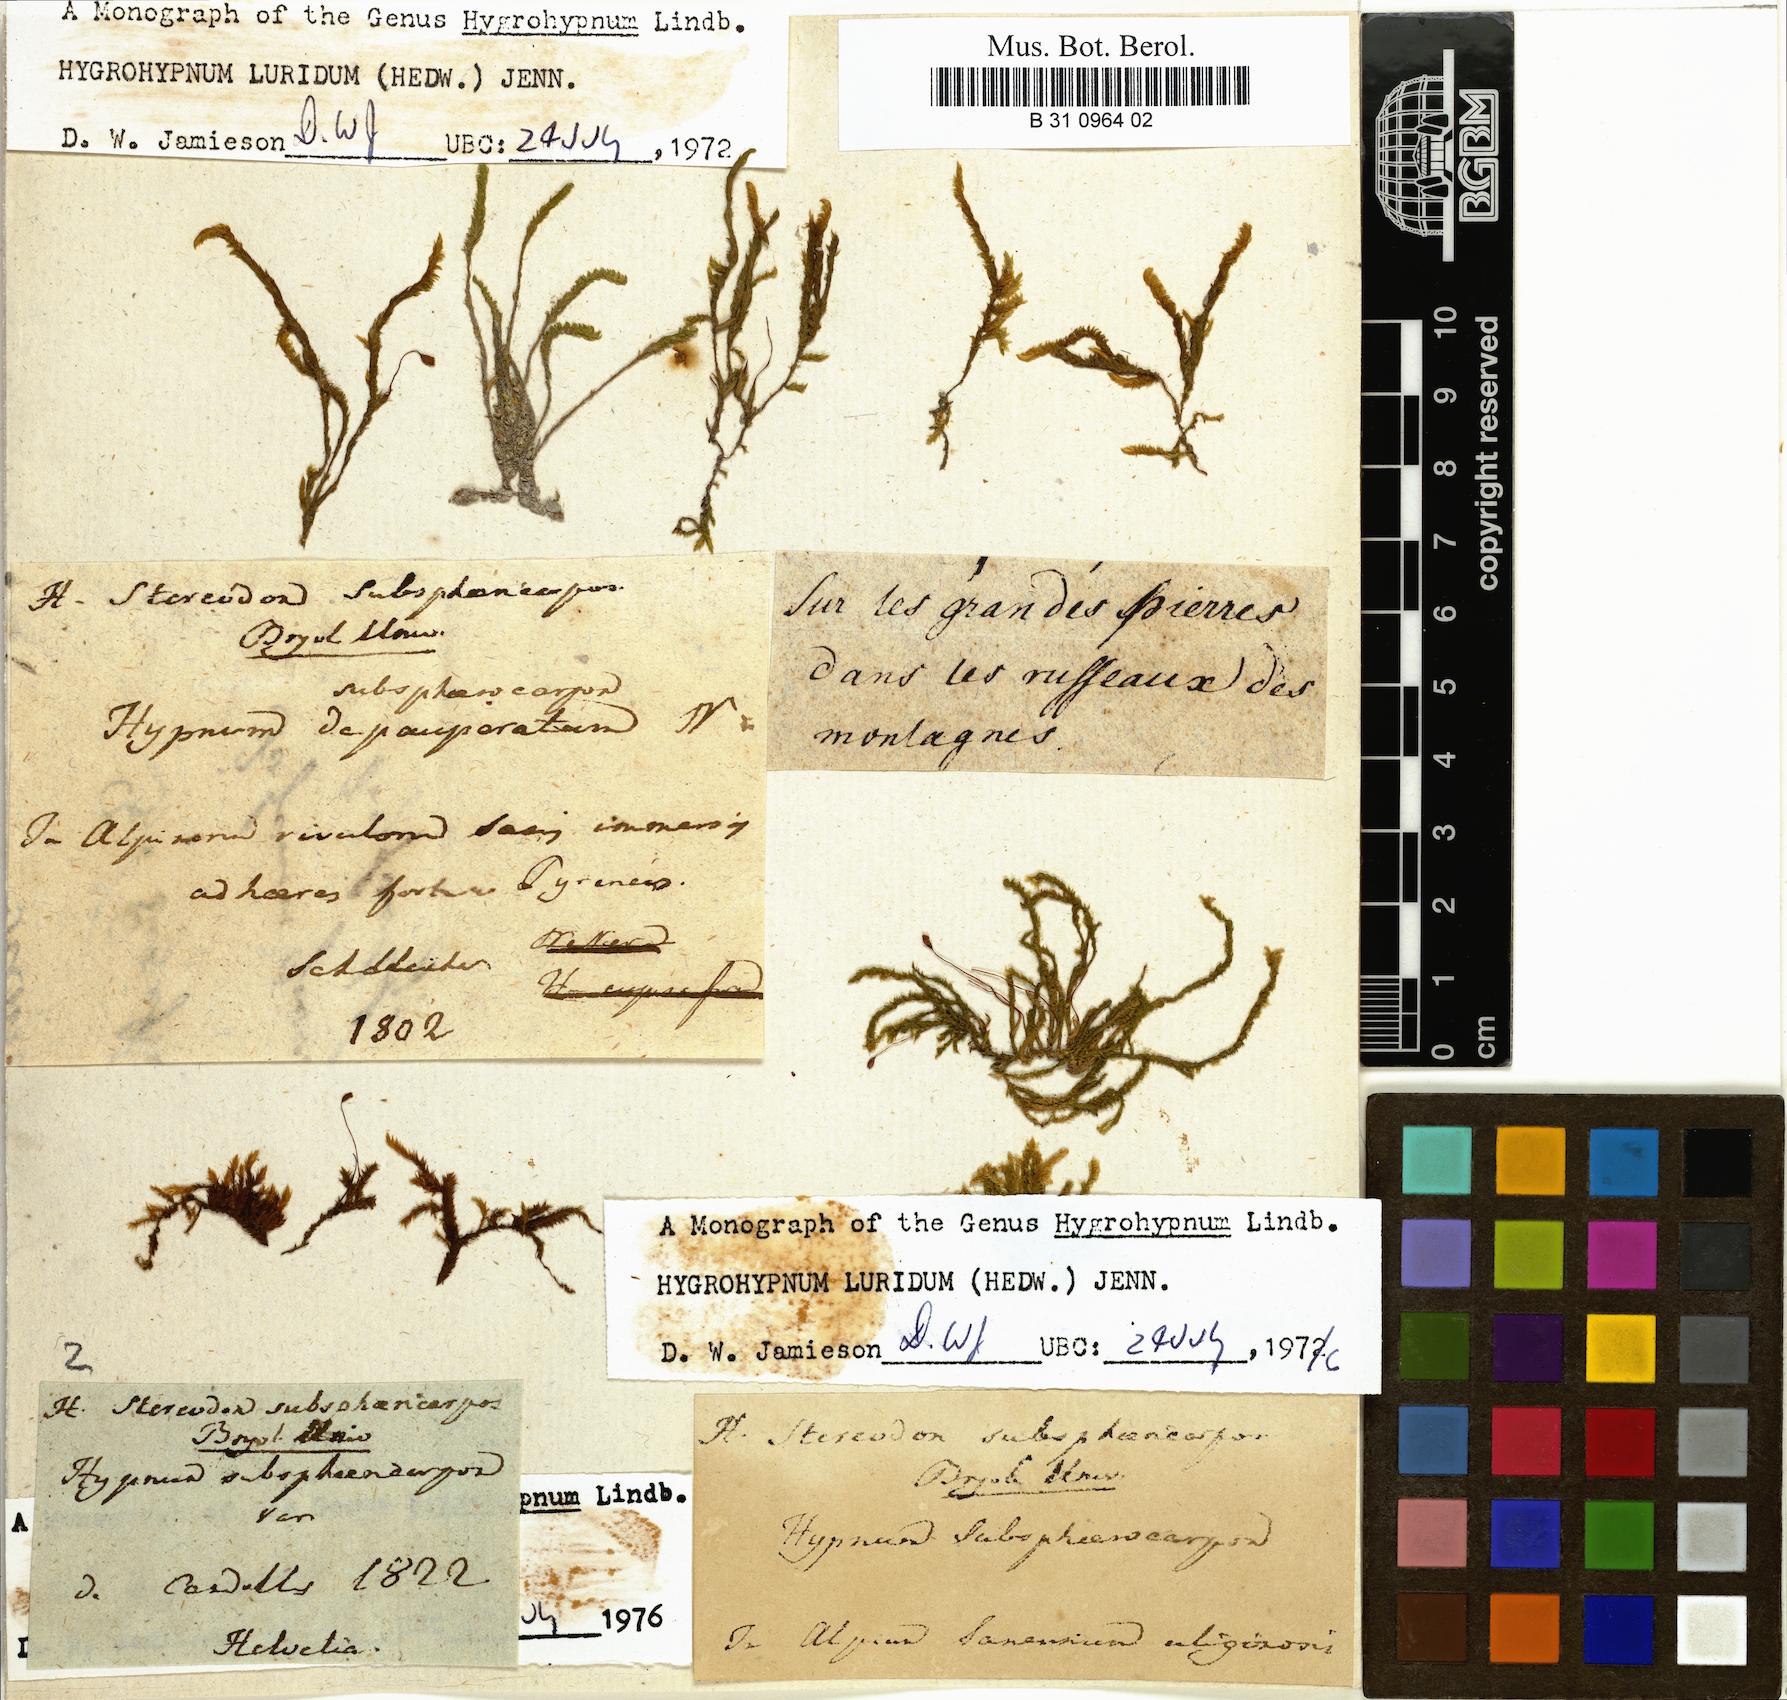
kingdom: Plantae
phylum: Bryophyta
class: Bryopsida
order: Hypnales
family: Stereodontaceae
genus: Stereodon
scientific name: Stereodon subsphaericarpus
